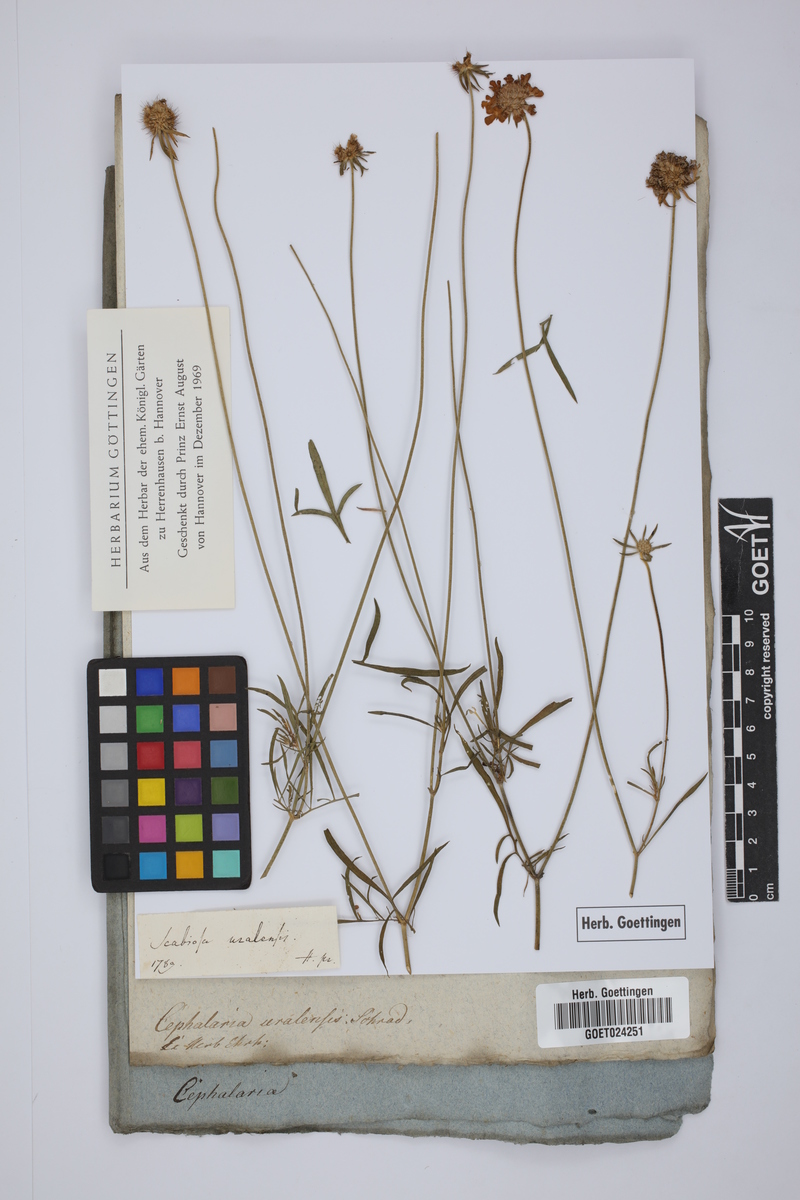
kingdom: Plantae
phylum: Tracheophyta
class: Magnoliopsida
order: Dipsacales
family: Caprifoliaceae
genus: Cephalaria
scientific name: Cephalaria uralensis
